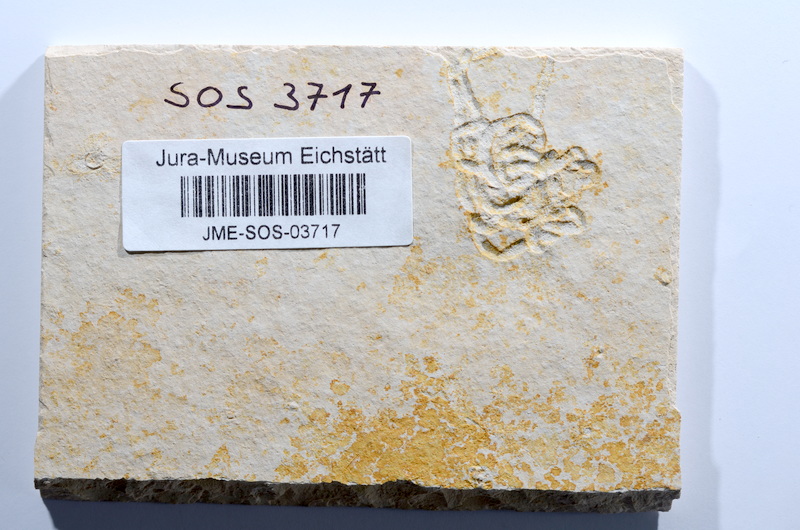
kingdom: Animalia
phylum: Chordata
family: Ascalaboidae
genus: Tharsis
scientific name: Tharsis dubius
